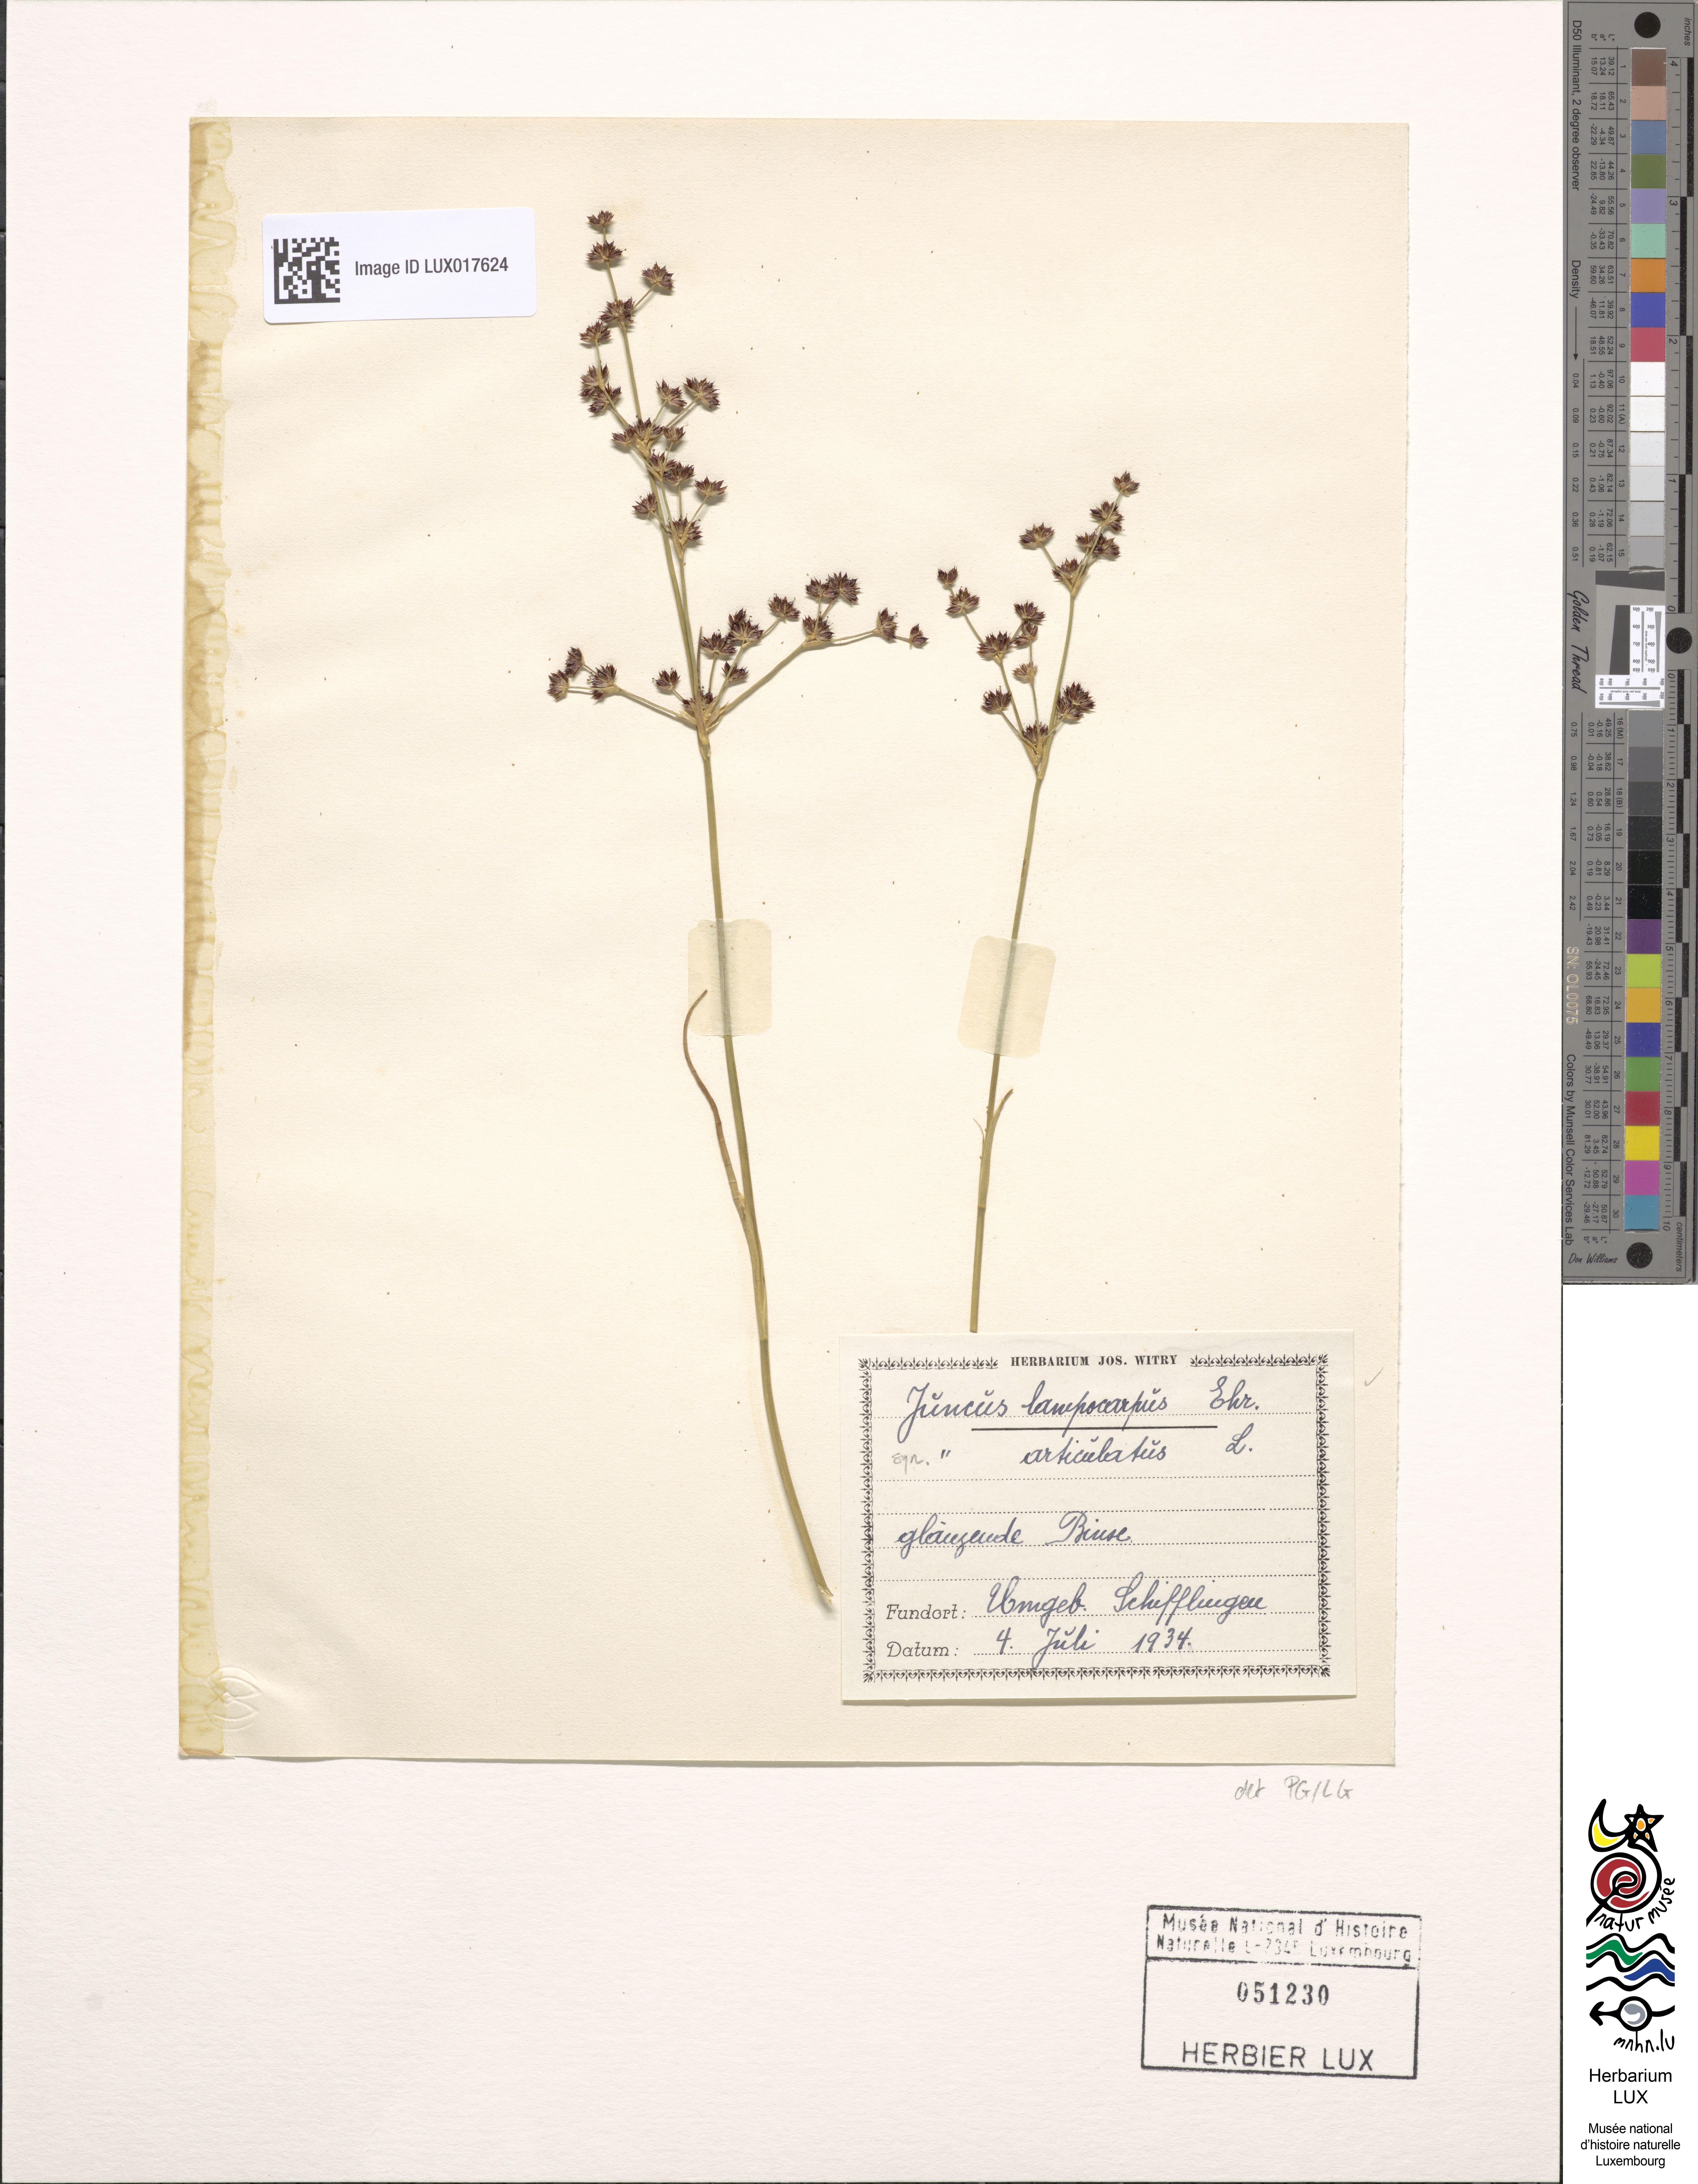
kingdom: Plantae
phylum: Tracheophyta
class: Liliopsida
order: Poales
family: Juncaceae
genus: Juncus
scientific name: Juncus articulatus
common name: Jointed rush
